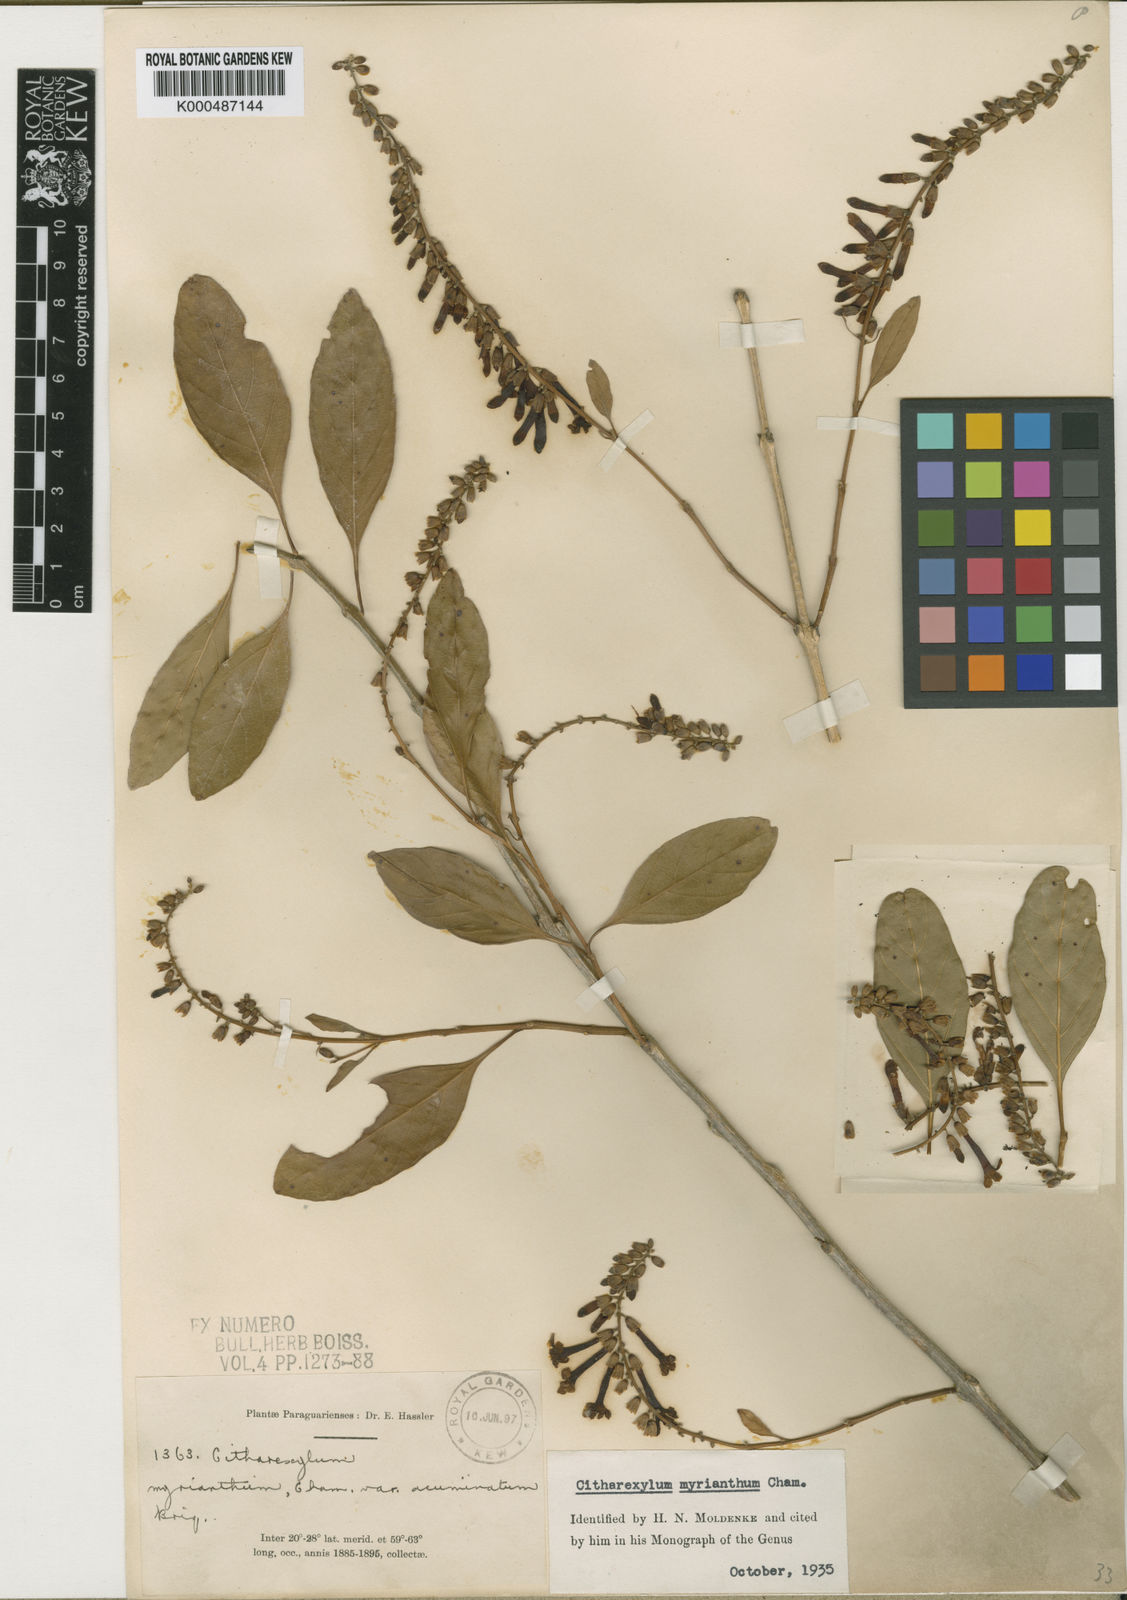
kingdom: Plantae
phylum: Tracheophyta
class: Magnoliopsida
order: Lamiales
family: Verbenaceae
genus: Citharexylum
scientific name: Citharexylum myrianthum
